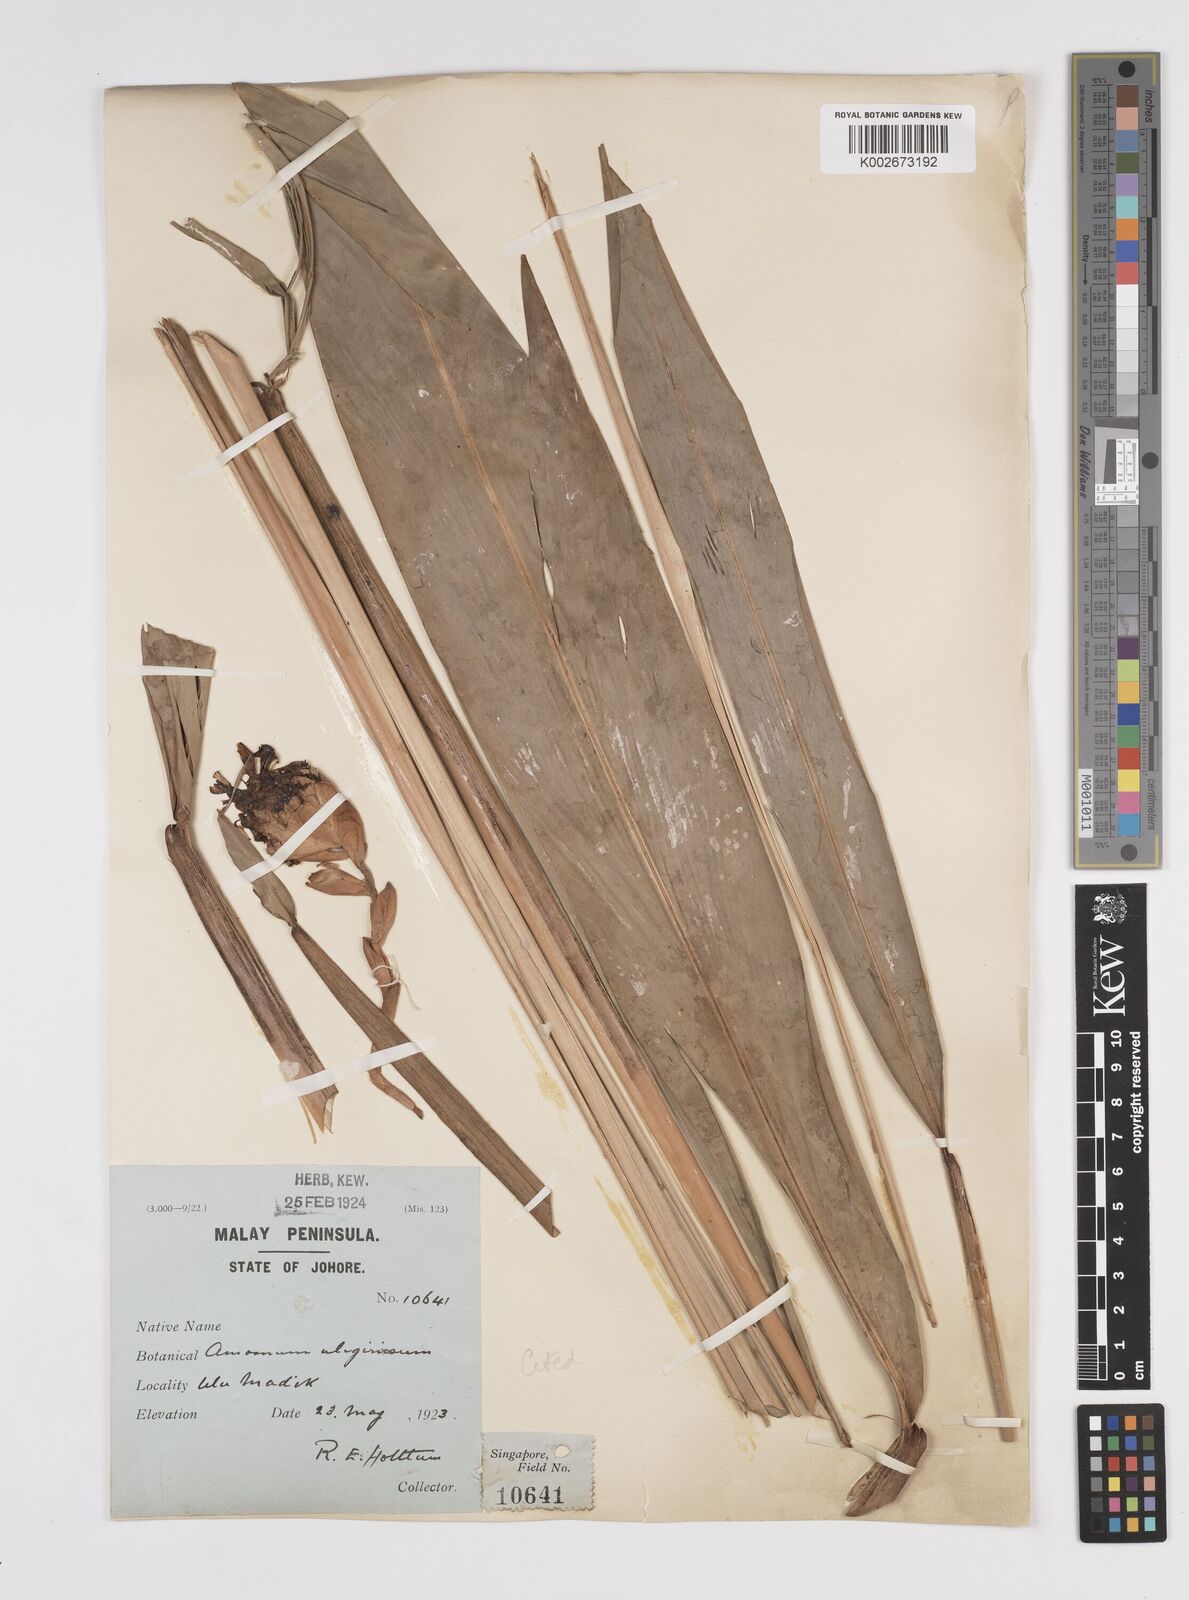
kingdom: Plantae
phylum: Tracheophyta
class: Liliopsida
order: Zingiberales
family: Zingiberaceae
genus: Wurfbainia
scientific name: Wurfbainia uliginosa
